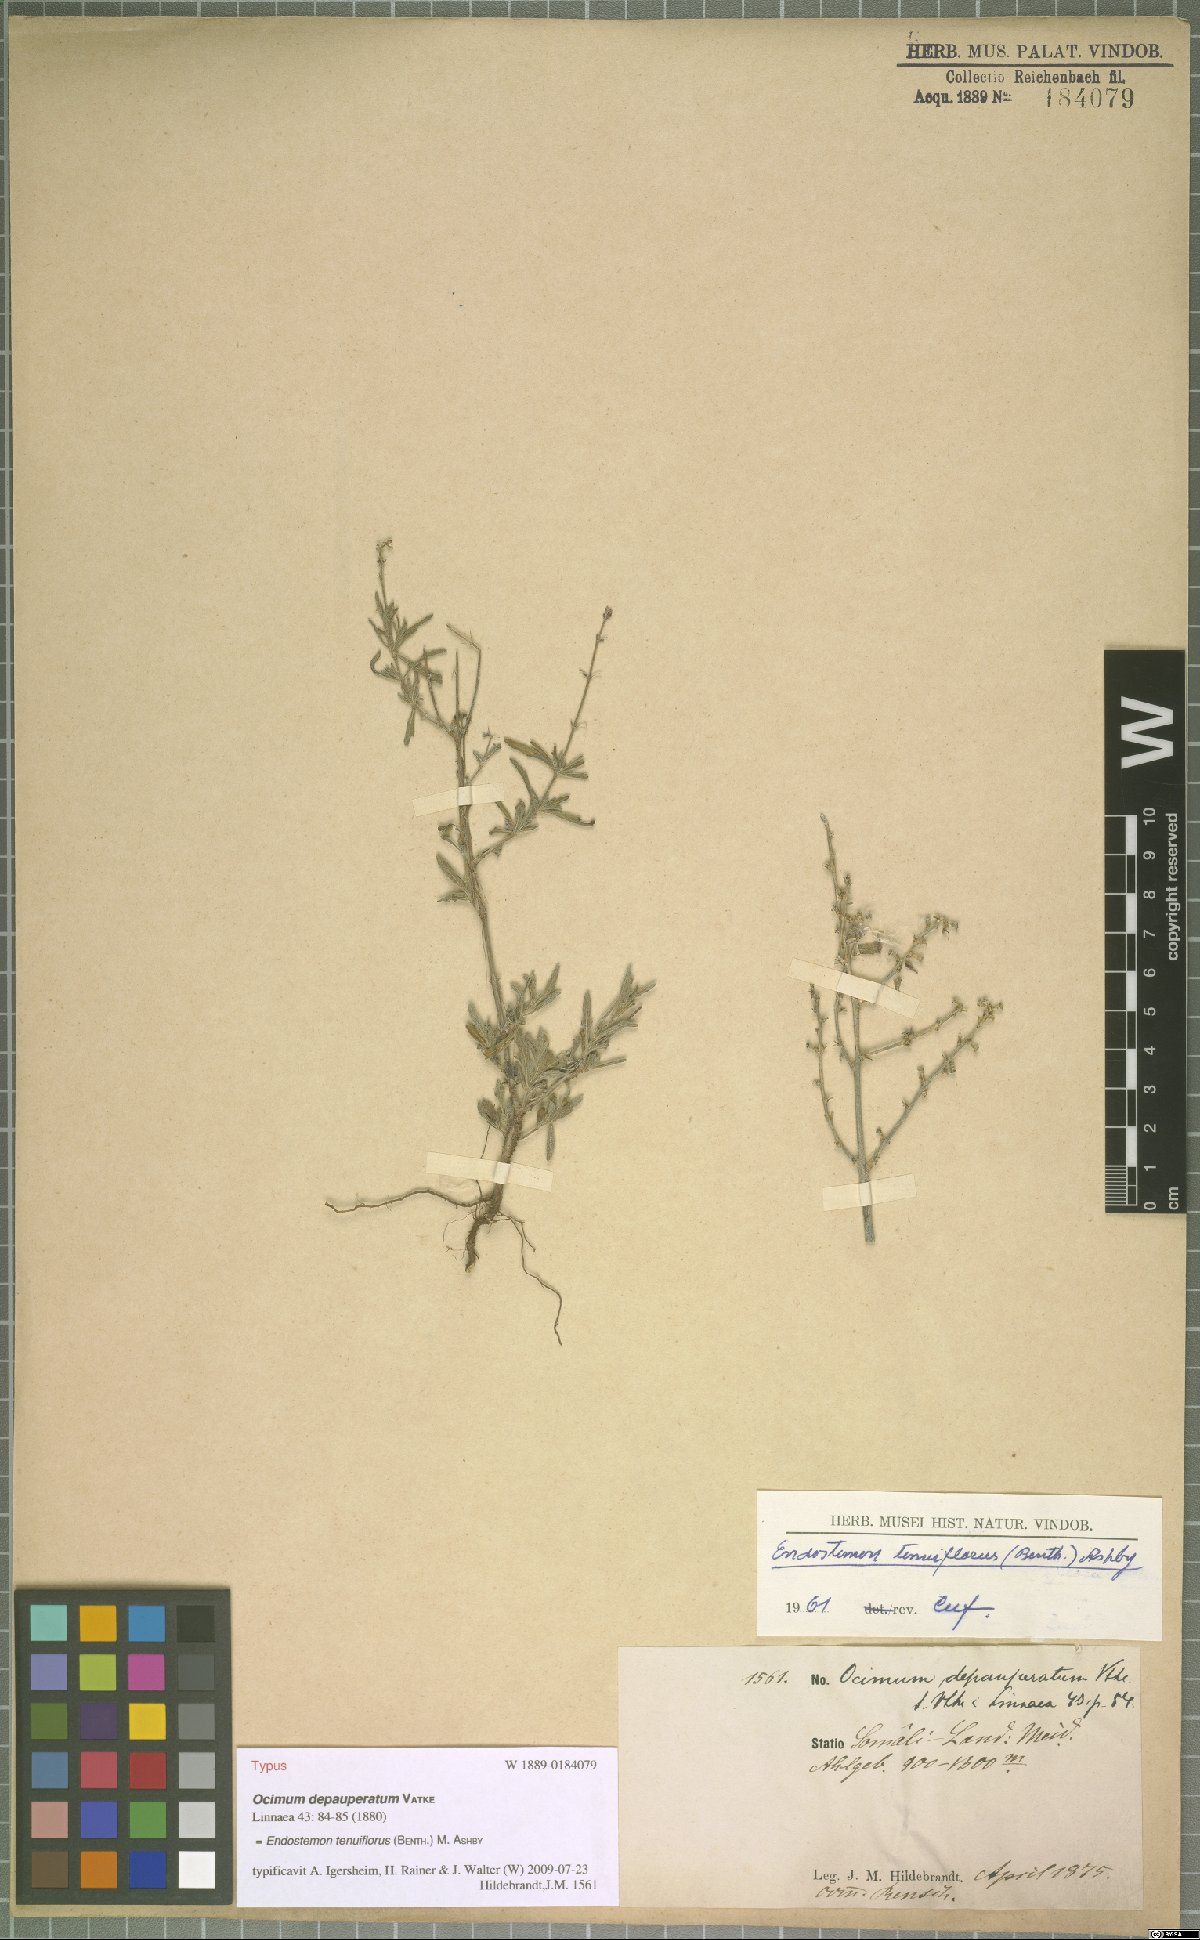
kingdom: Plantae
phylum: Tracheophyta
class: Magnoliopsida
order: Lamiales
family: Lamiaceae
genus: Endostemon
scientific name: Endostemon tenuiflorus
